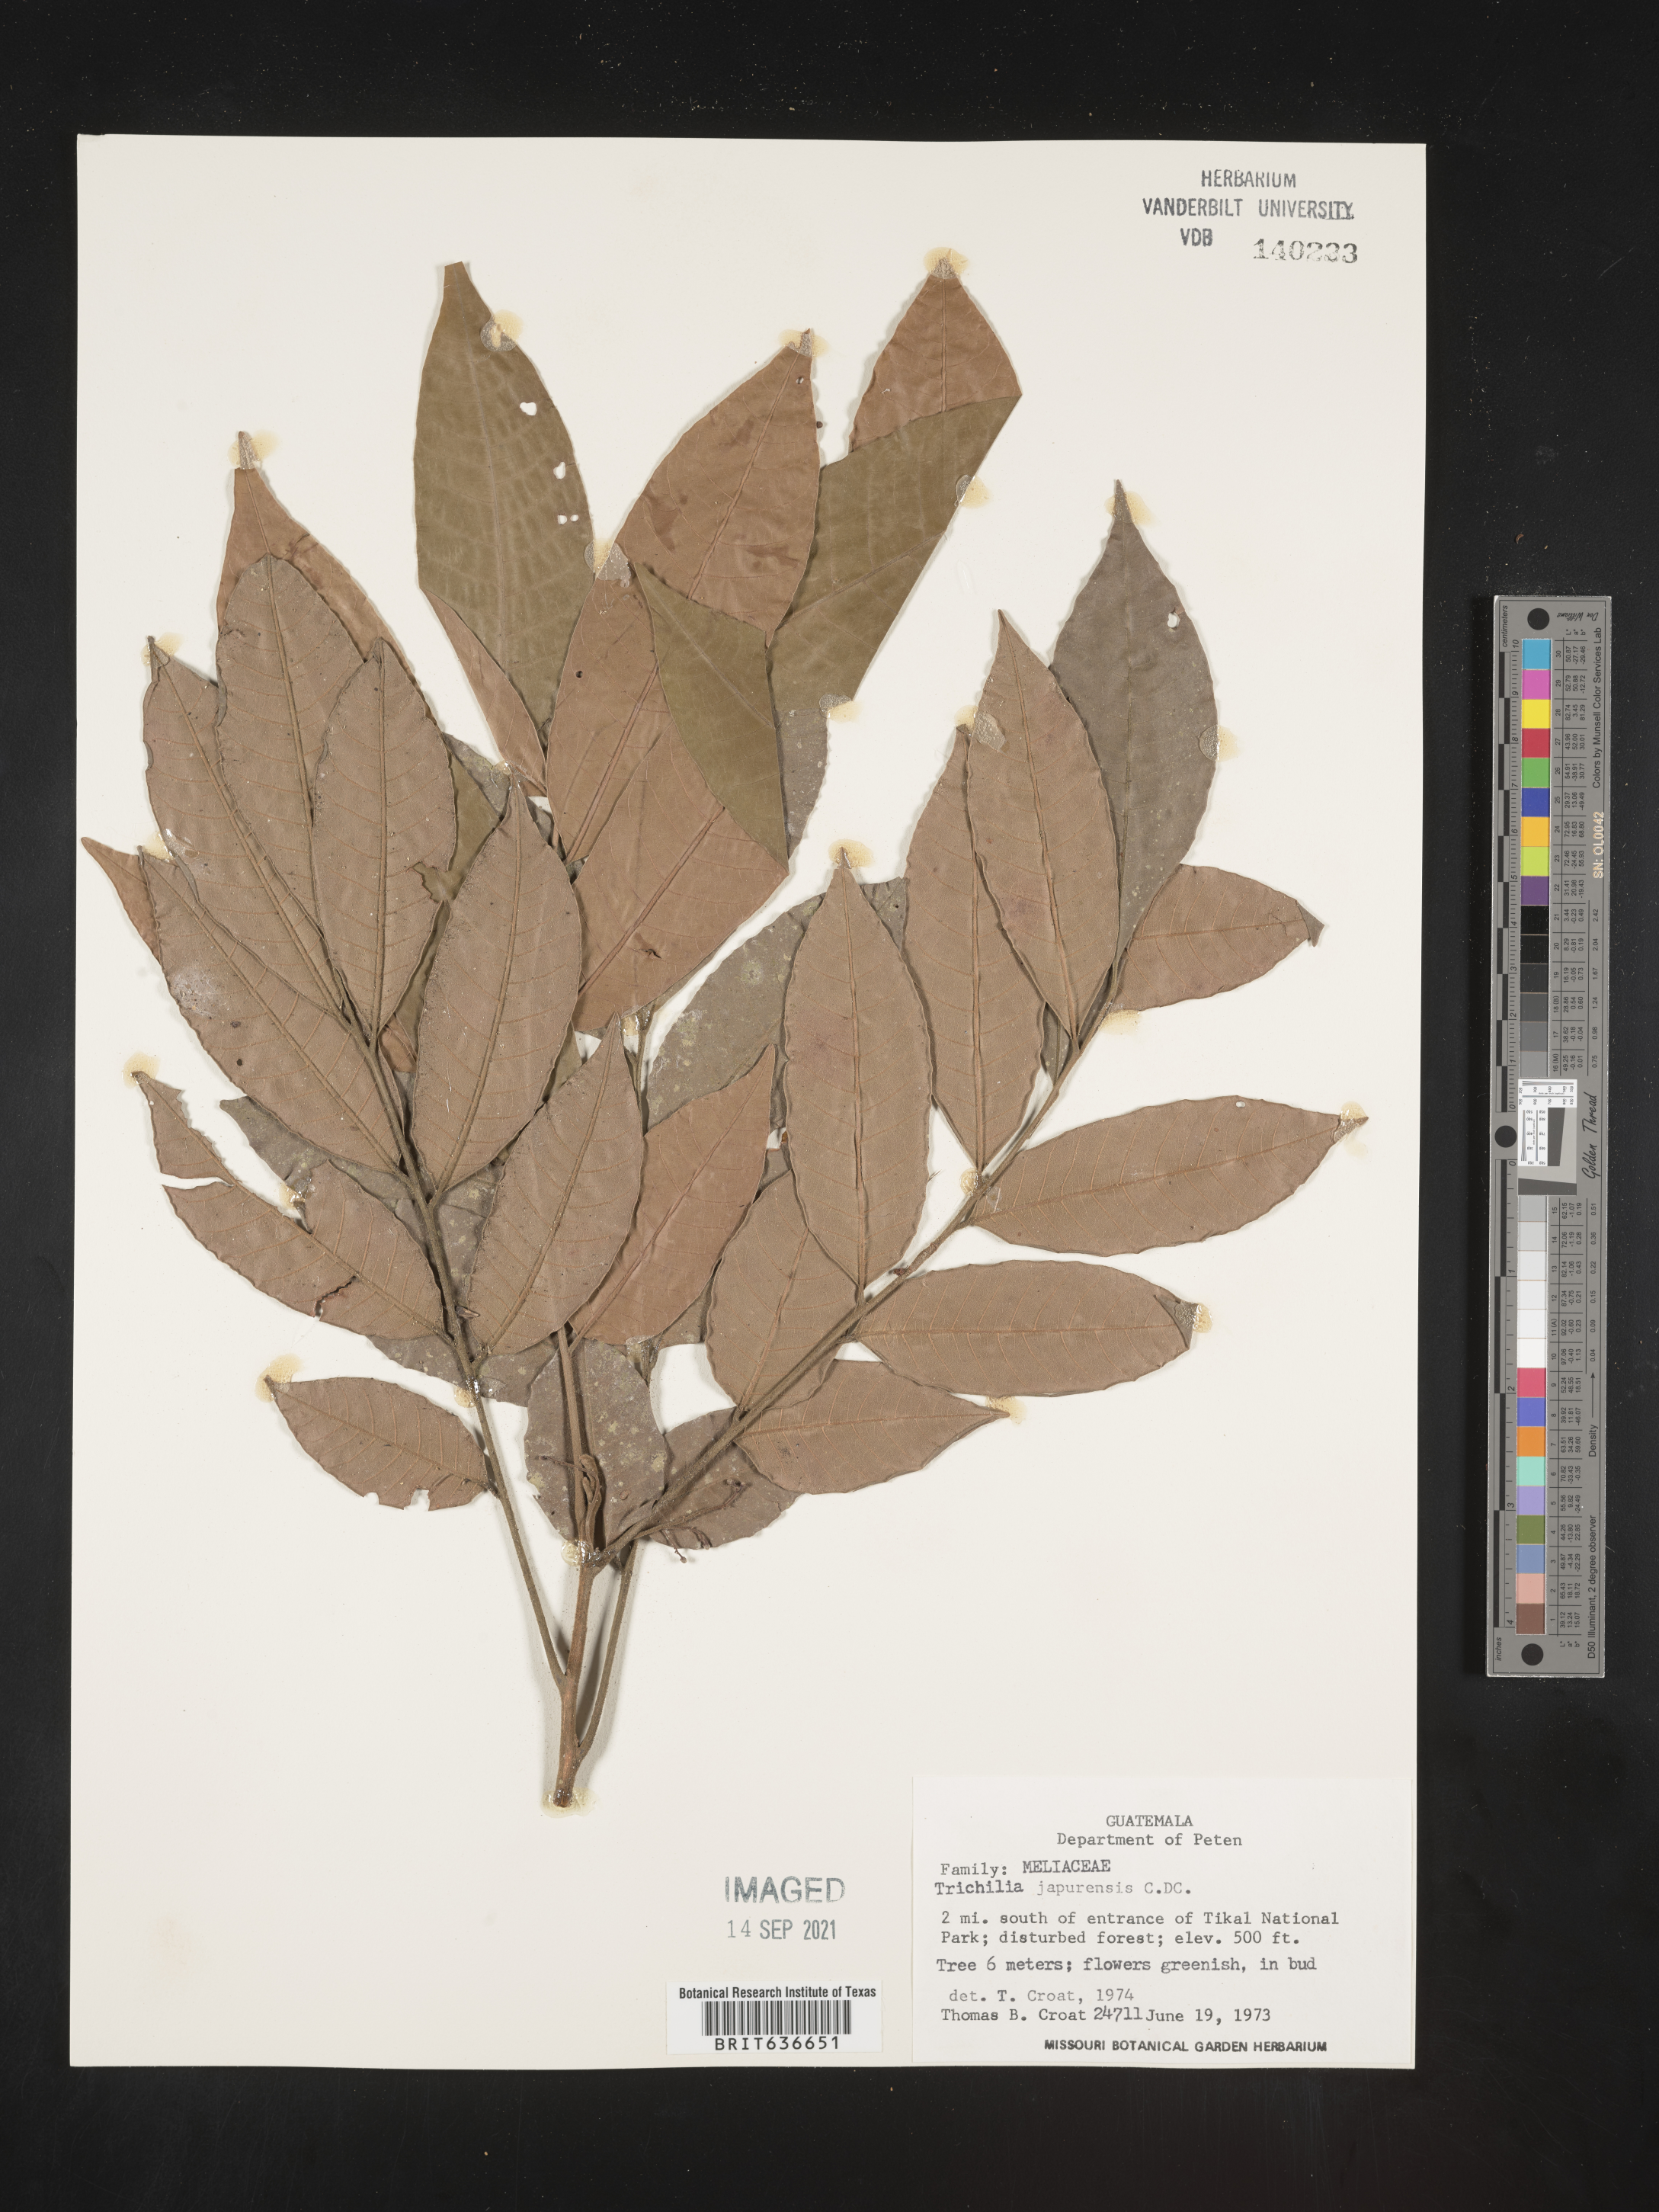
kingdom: Plantae
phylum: Tracheophyta
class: Magnoliopsida
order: Sapindales
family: Meliaceae
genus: Trichilia
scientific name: Trichilia
